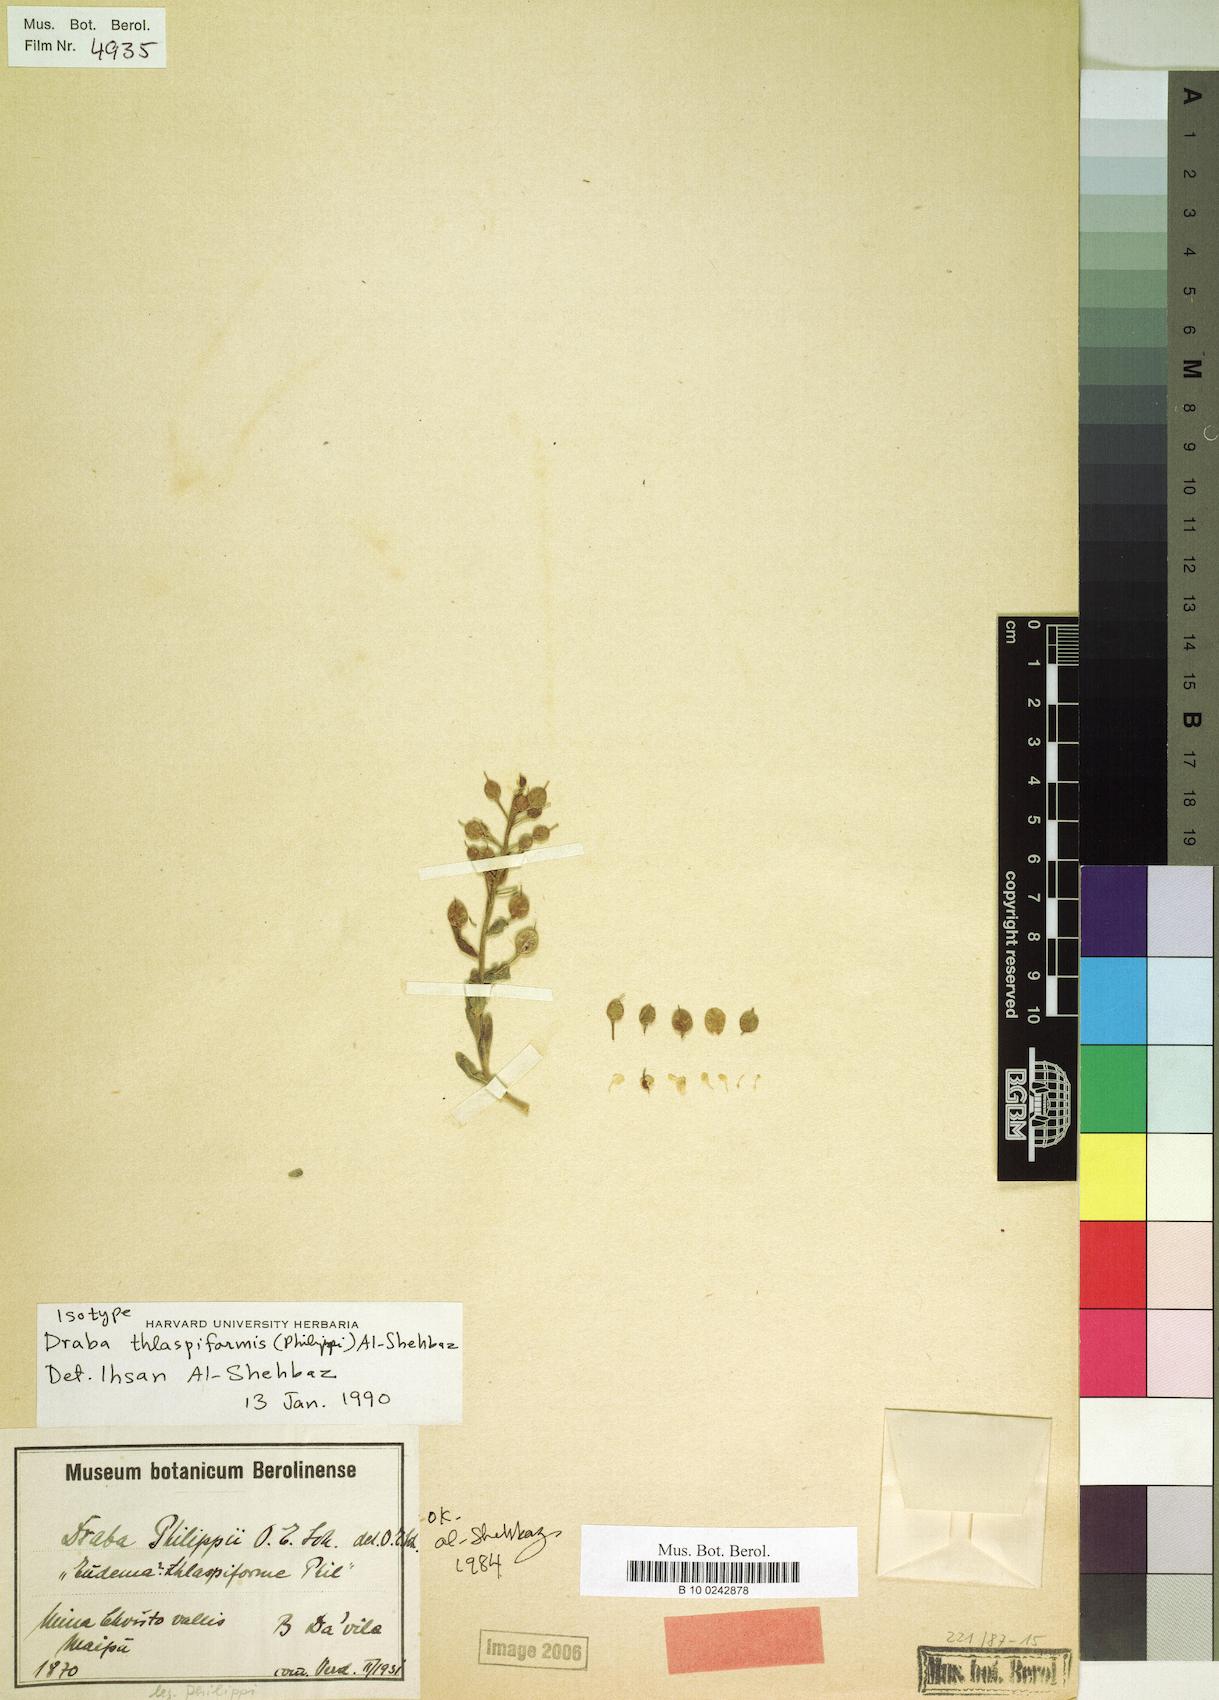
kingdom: Plantae
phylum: Tracheophyta
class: Magnoliopsida
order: Brassicales
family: Brassicaceae
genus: Draba
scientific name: Draba thlaspiformis
